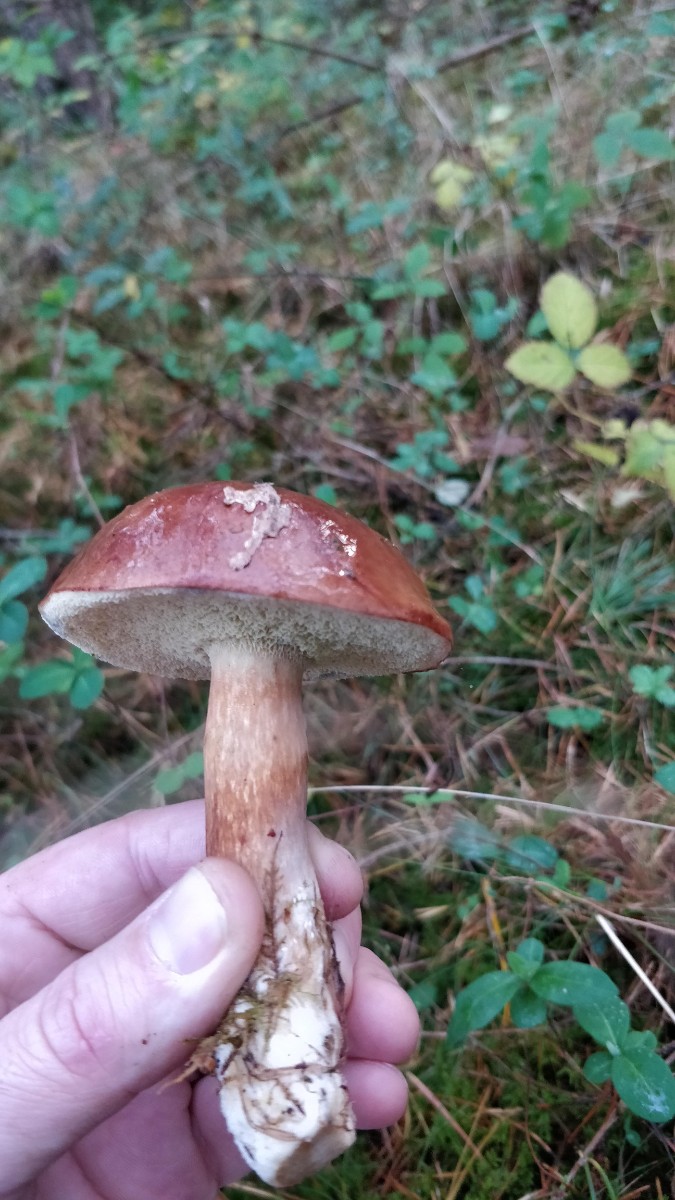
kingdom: Fungi
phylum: Basidiomycota
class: Agaricomycetes
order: Boletales
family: Boletaceae
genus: Imleria
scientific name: Imleria badia
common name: brunstokket rørhat
